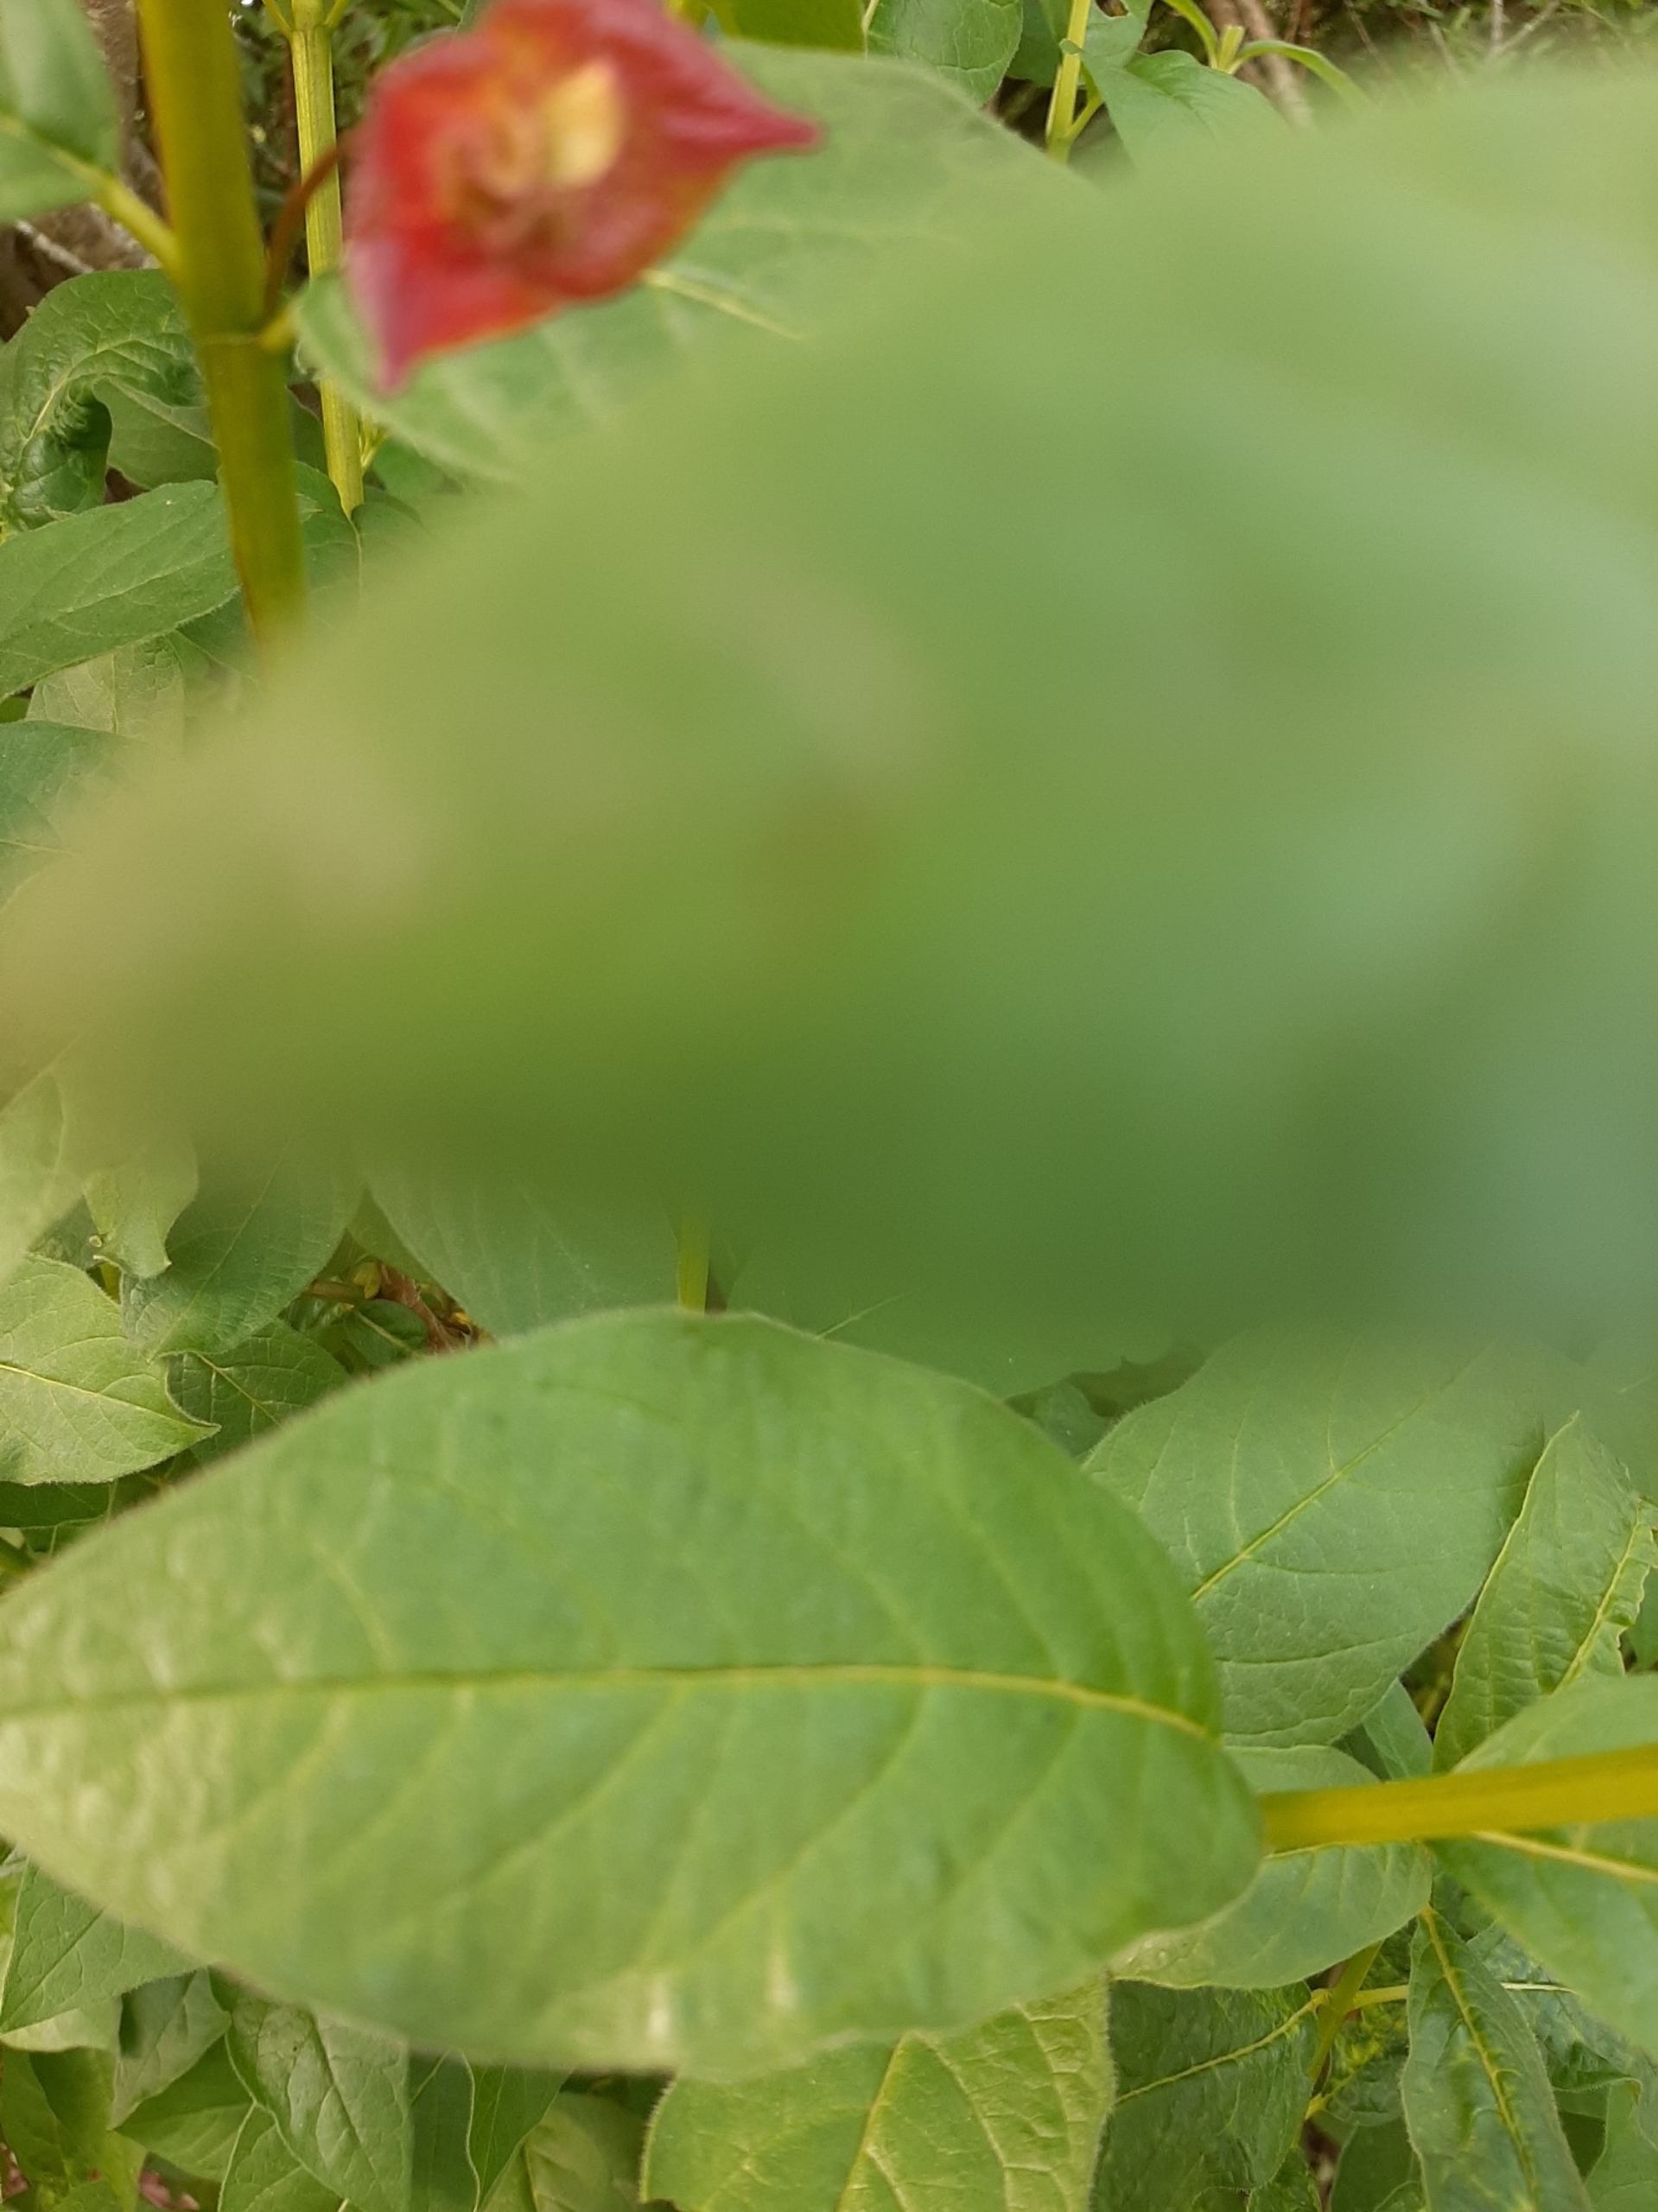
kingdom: Plantae
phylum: Tracheophyta
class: Magnoliopsida
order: Dipsacales
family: Caprifoliaceae
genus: Lonicera
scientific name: Lonicera involucrata
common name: Svøb-gedeblad
